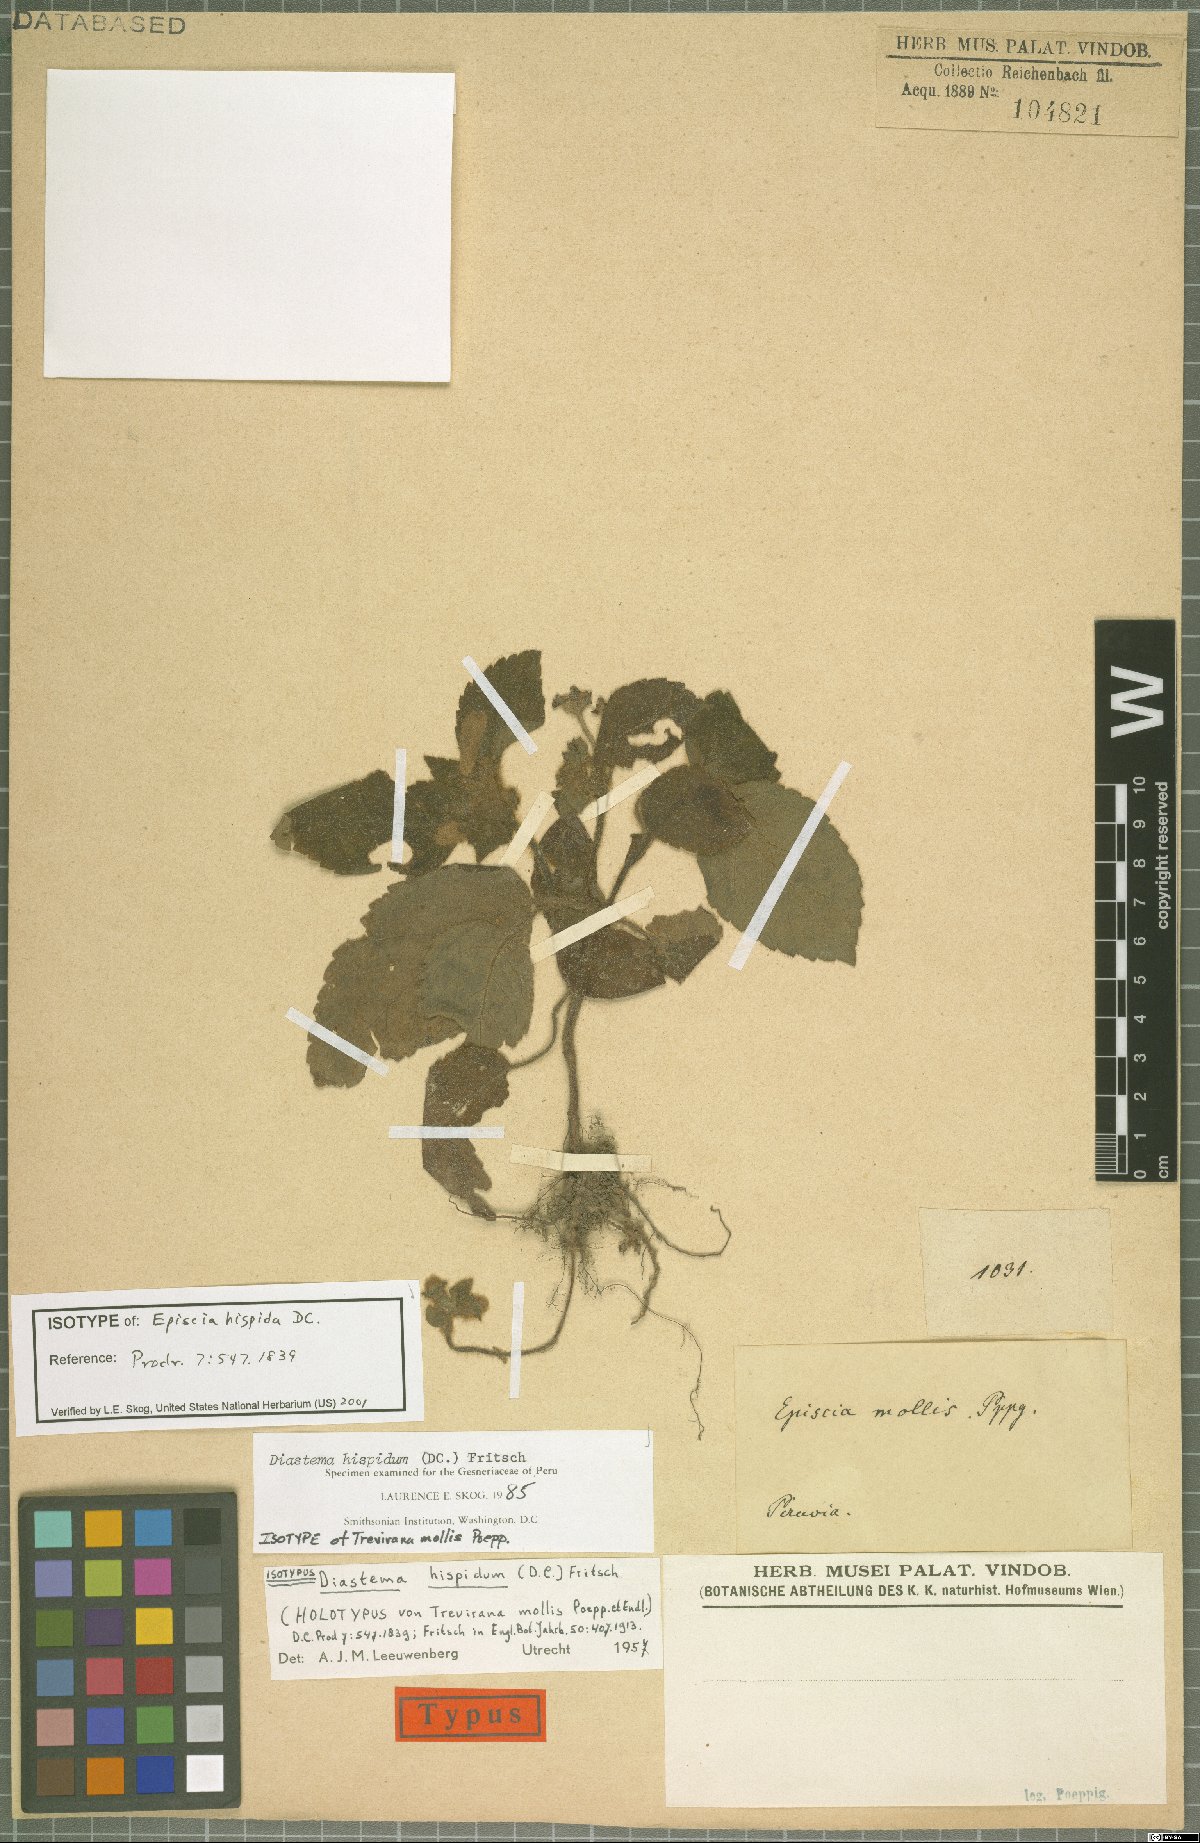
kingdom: Plantae
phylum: Tracheophyta
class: Magnoliopsida
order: Lamiales
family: Gesneriaceae
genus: Diastema
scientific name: Diastema hispidum
